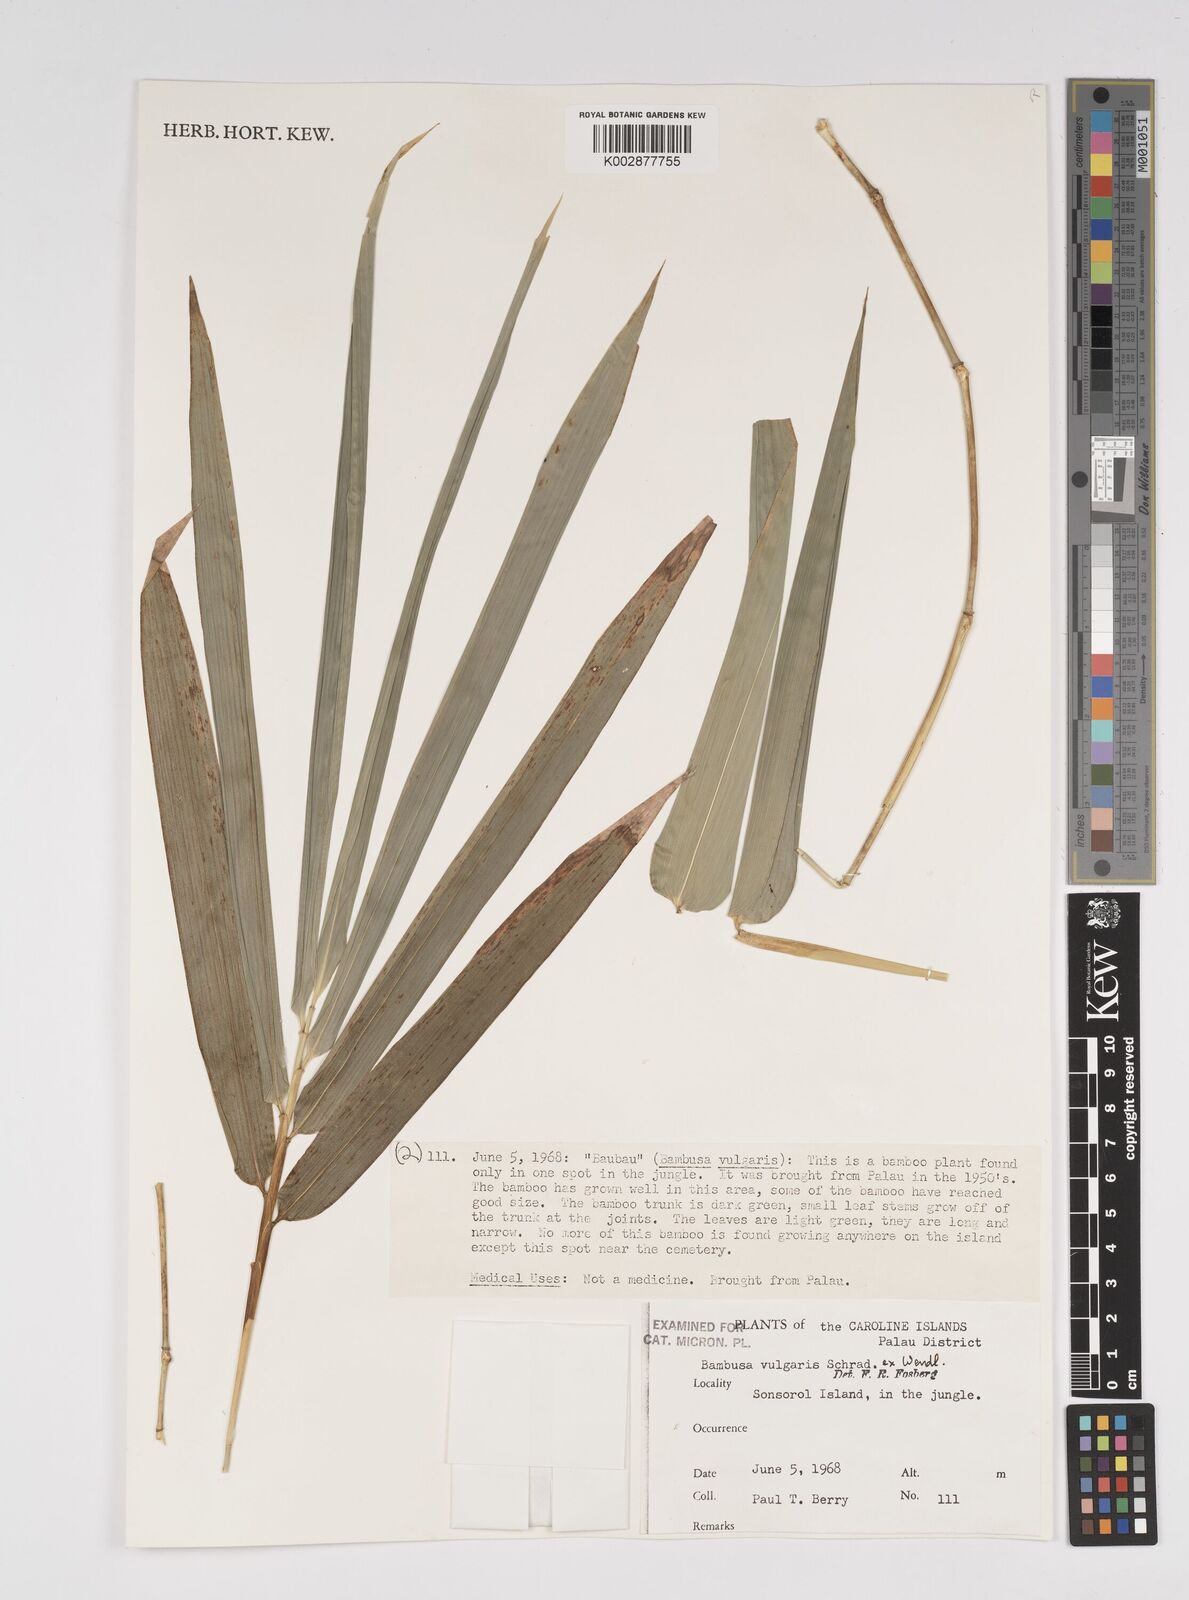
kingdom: Plantae
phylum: Tracheophyta
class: Liliopsida
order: Poales
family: Poaceae
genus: Bambusa
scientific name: Bambusa
